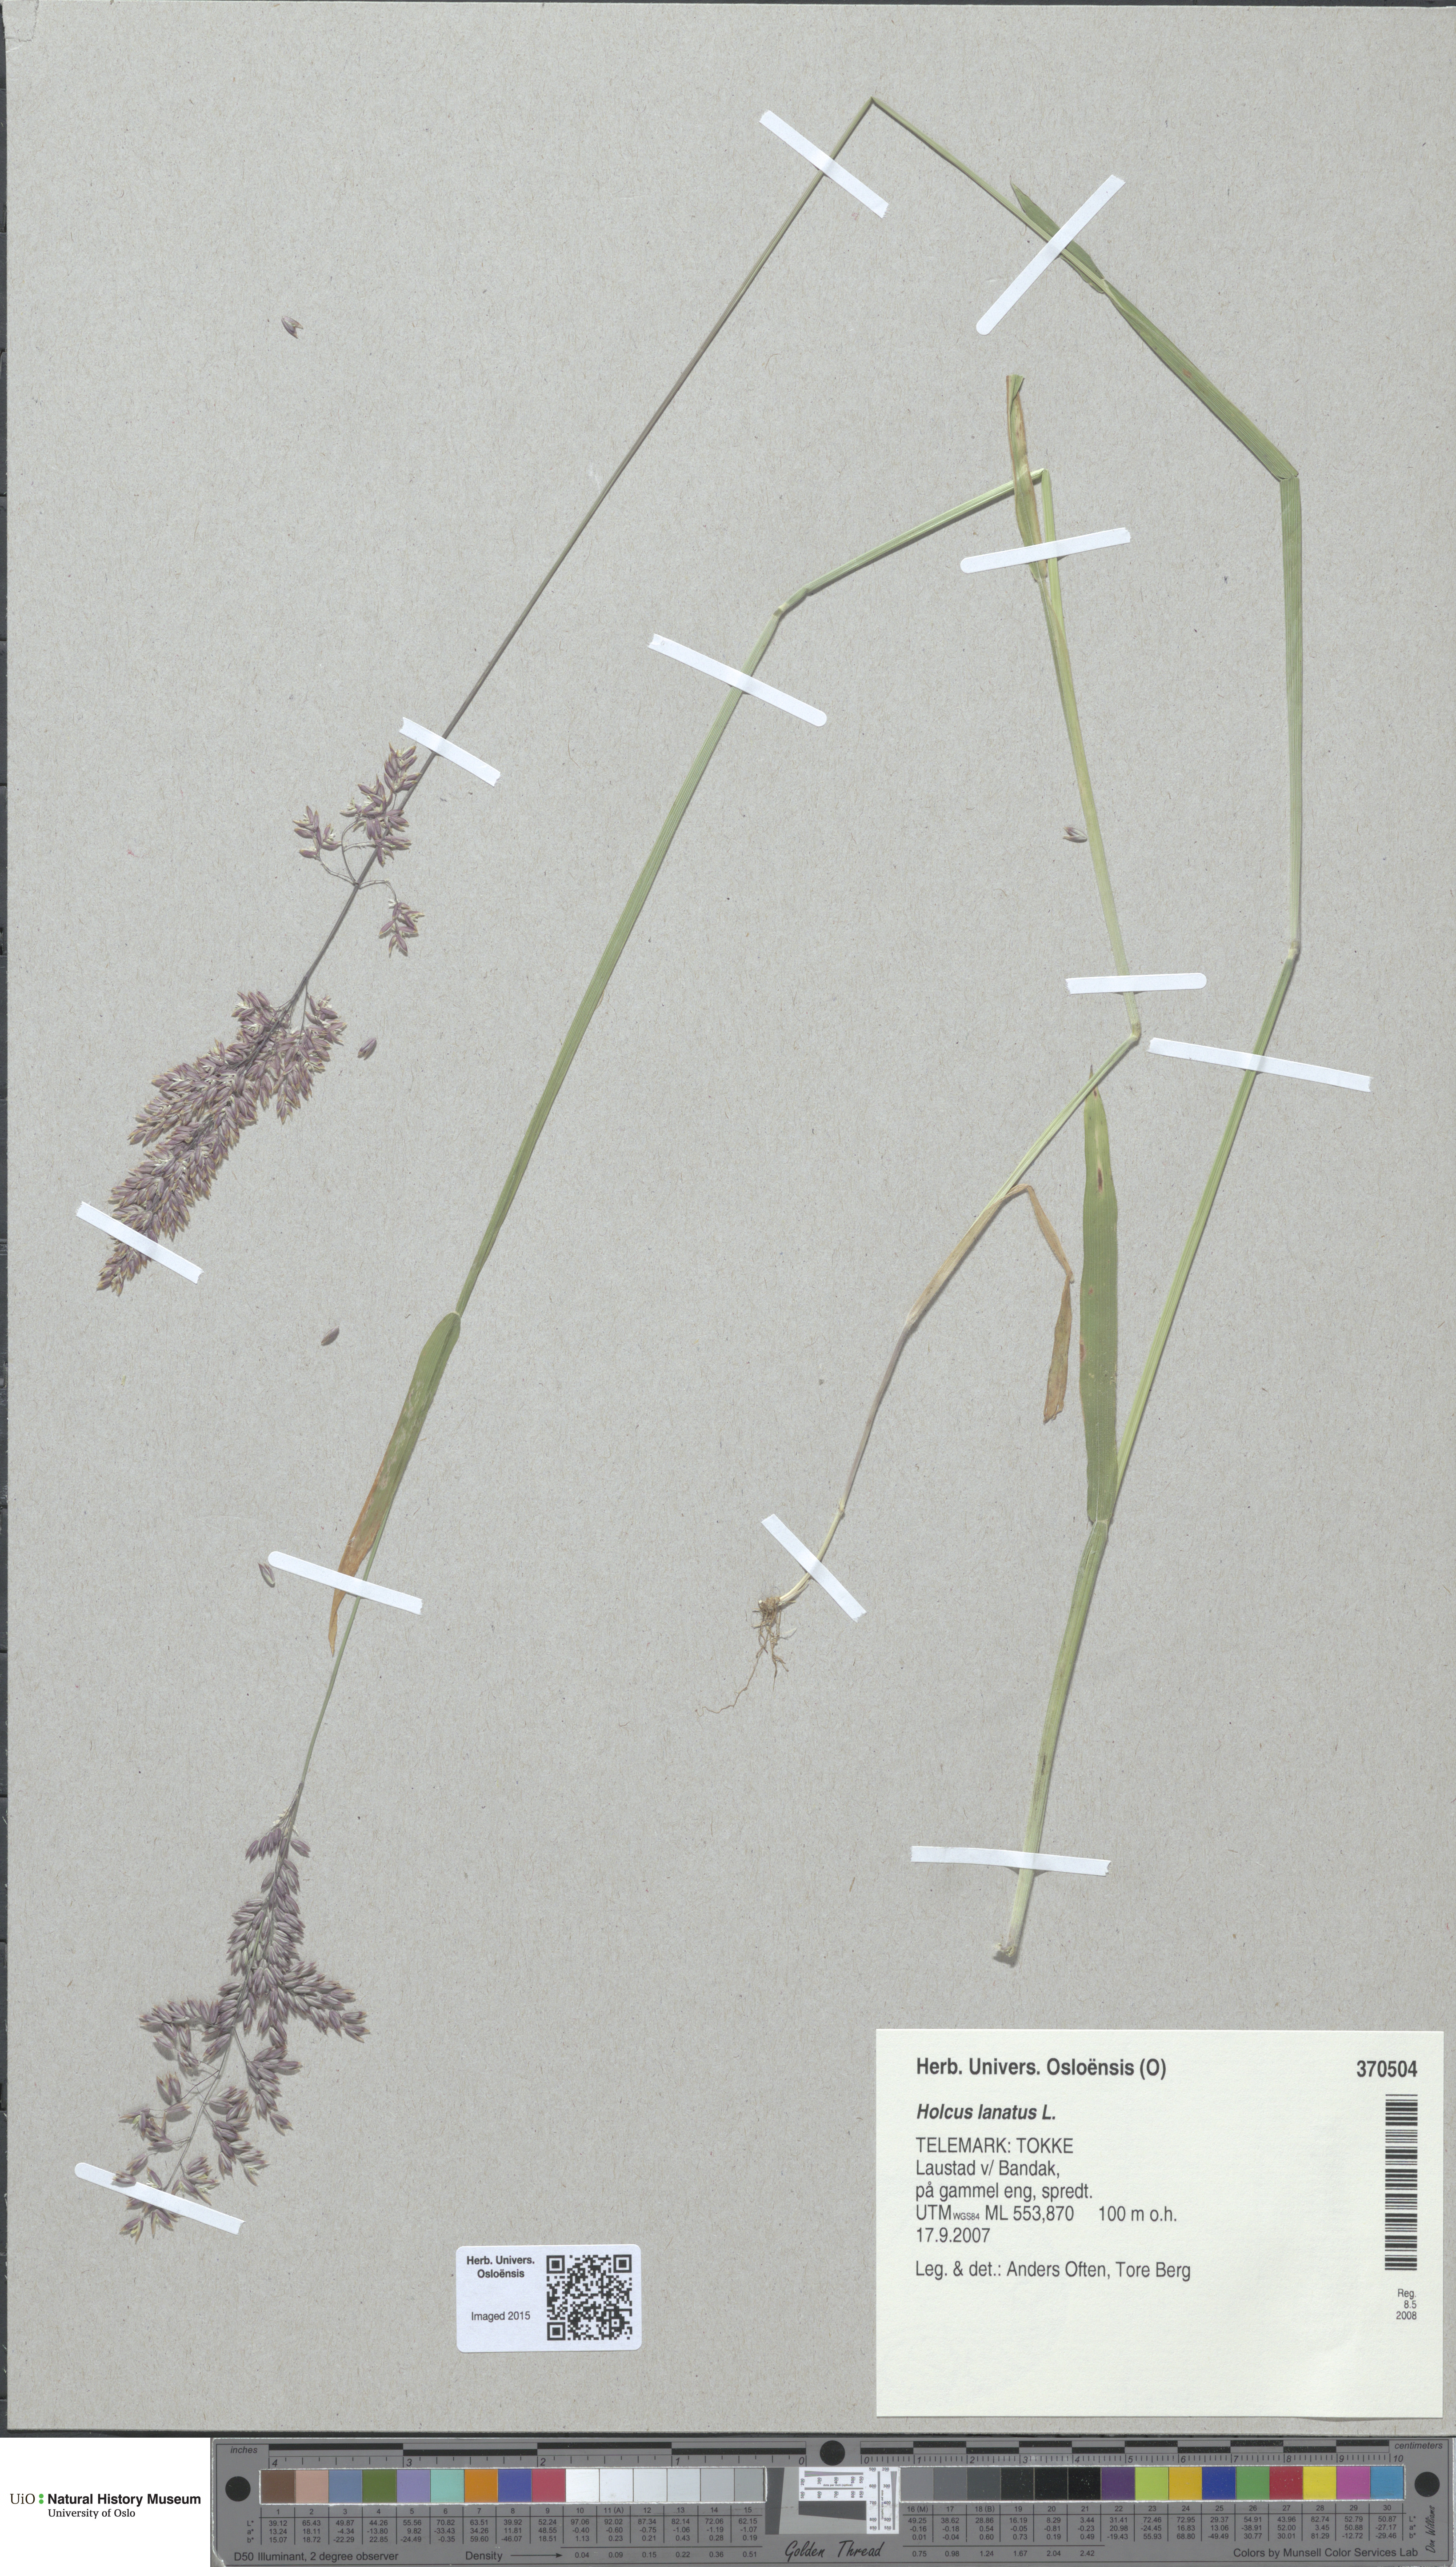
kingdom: Plantae
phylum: Tracheophyta
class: Liliopsida
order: Poales
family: Poaceae
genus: Holcus
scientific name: Holcus lanatus
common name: Yorkshire-fog
